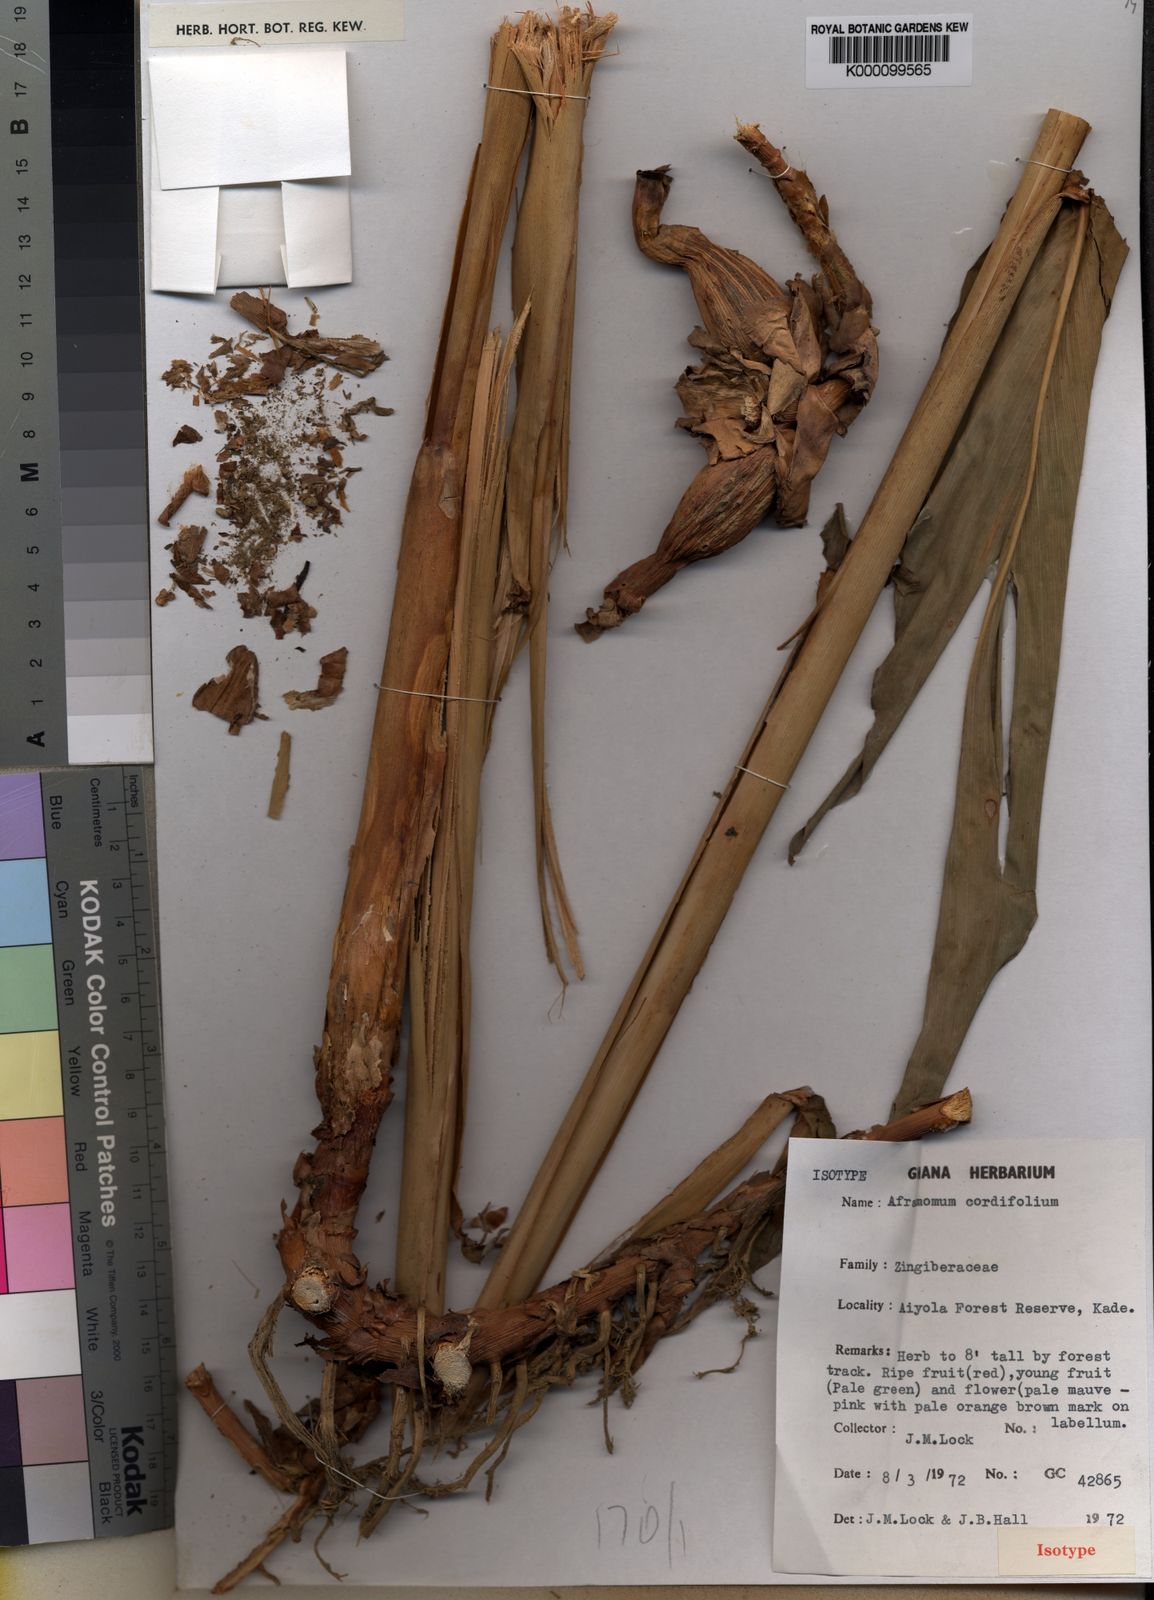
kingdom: Plantae
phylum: Tracheophyta
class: Liliopsida
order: Zingiberales
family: Zingiberaceae
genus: Aframomum
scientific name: Aframomum cordifolium
